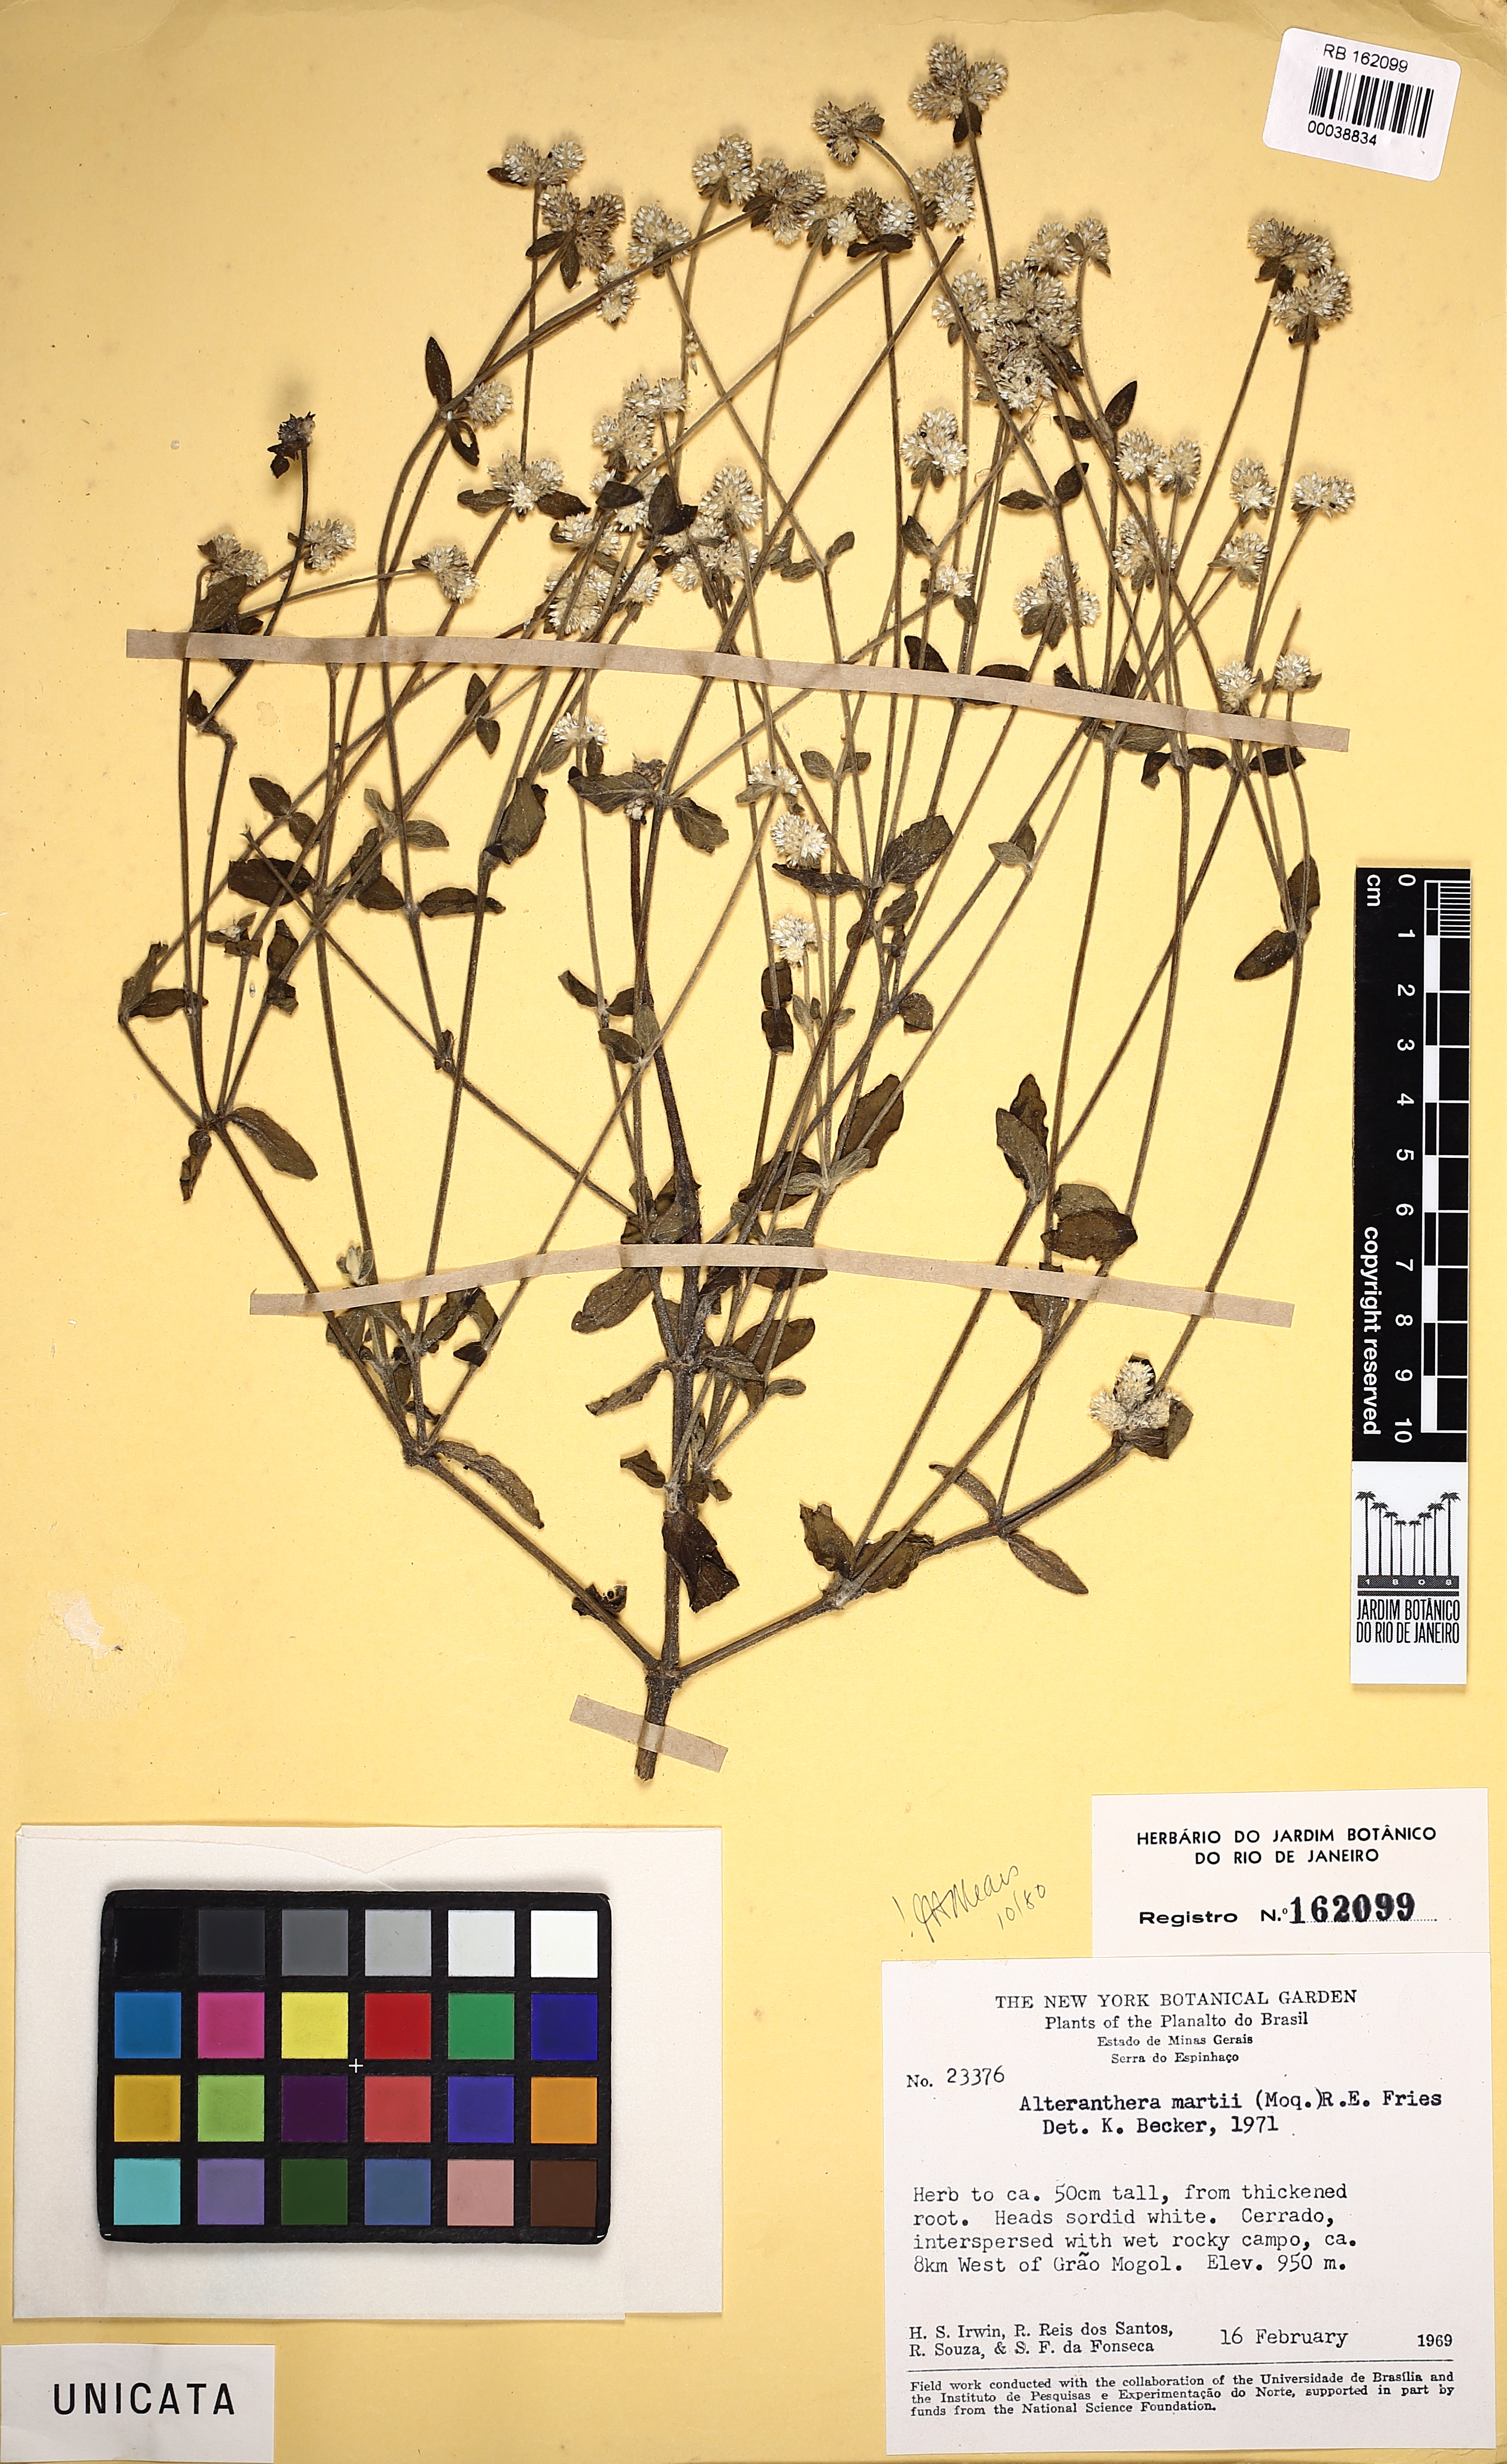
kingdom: Plantae
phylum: Tracheophyta
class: Magnoliopsida
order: Caryophyllales
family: Amaranthaceae
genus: Alternanthera
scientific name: Alternanthera martii
